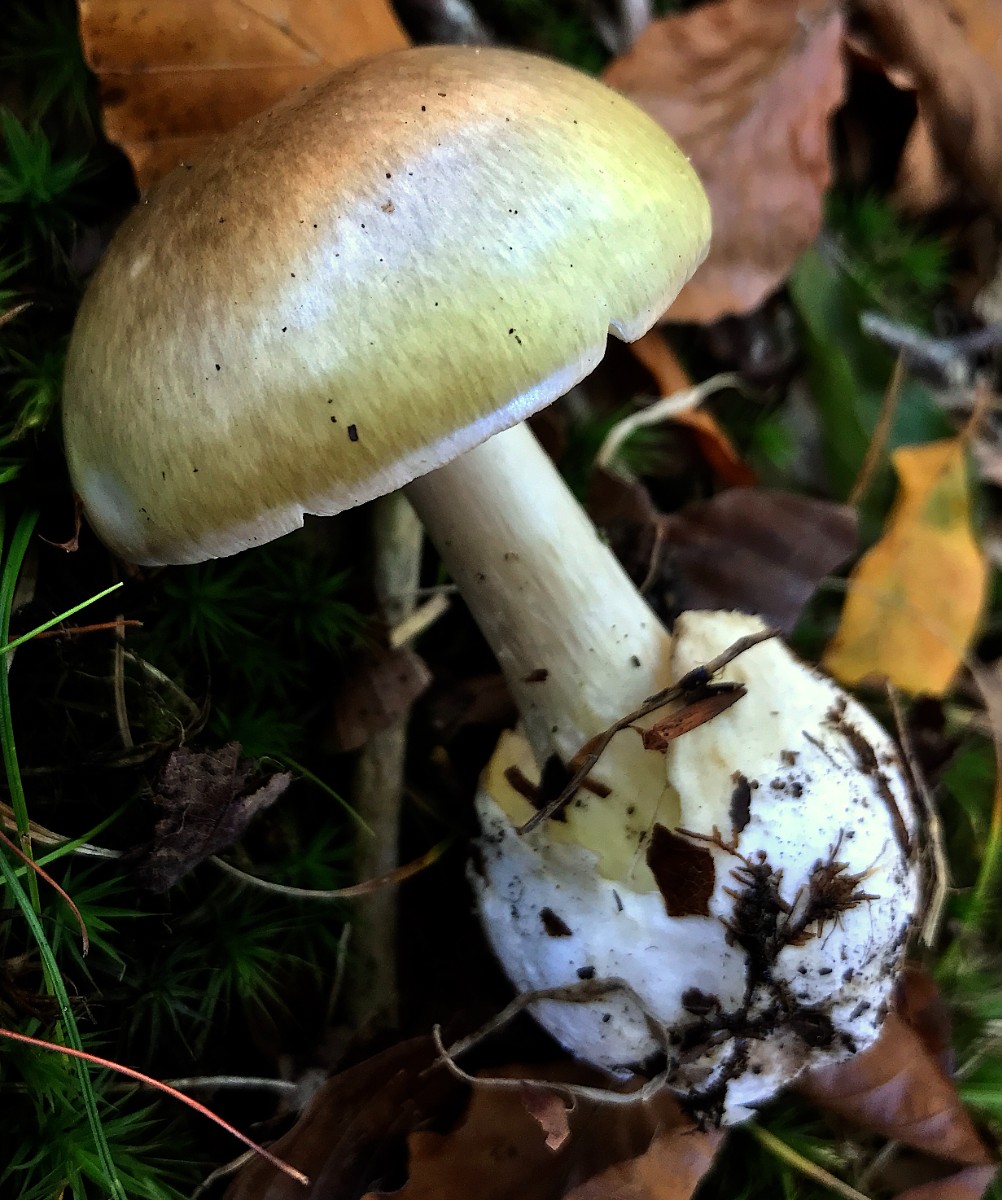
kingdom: Fungi
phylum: Basidiomycota
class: Agaricomycetes
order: Agaricales
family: Amanitaceae
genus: Amanita
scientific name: Amanita phalloides
